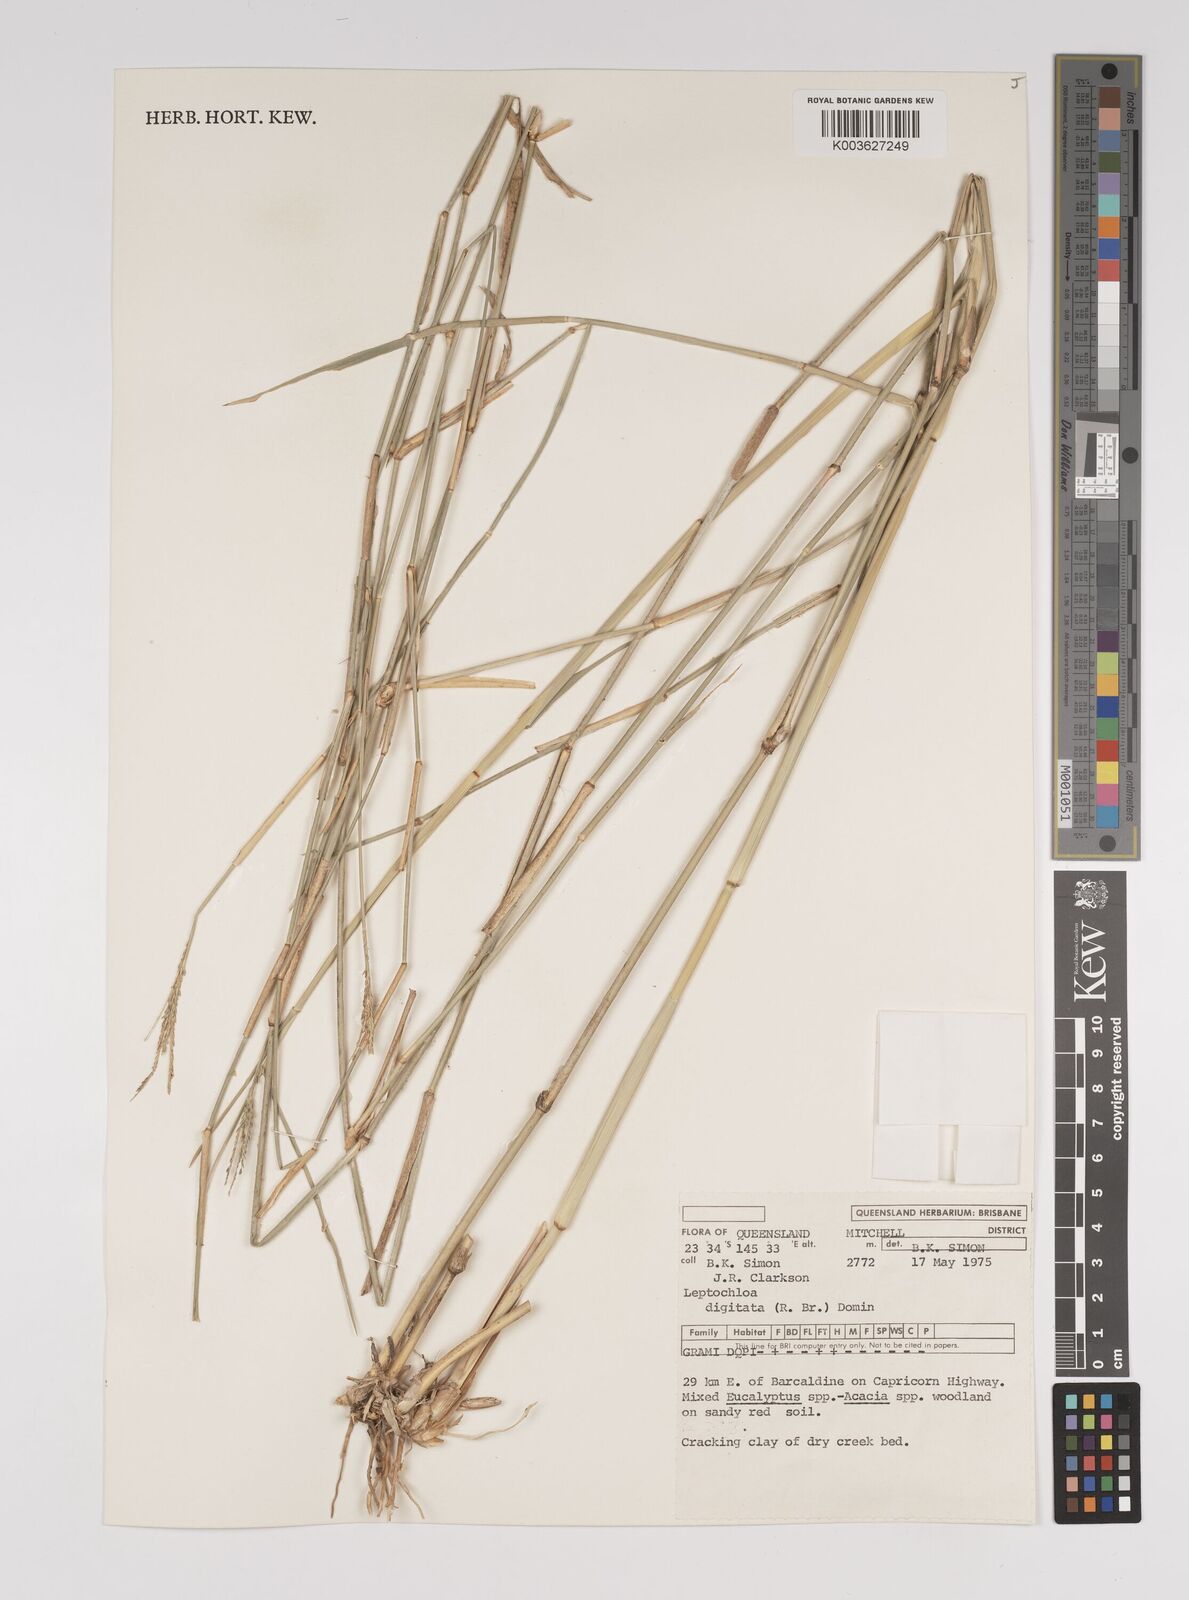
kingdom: Plantae
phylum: Tracheophyta
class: Liliopsida
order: Poales
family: Poaceae
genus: Leptochloa
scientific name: Leptochloa digitata
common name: Finger sprangletop
